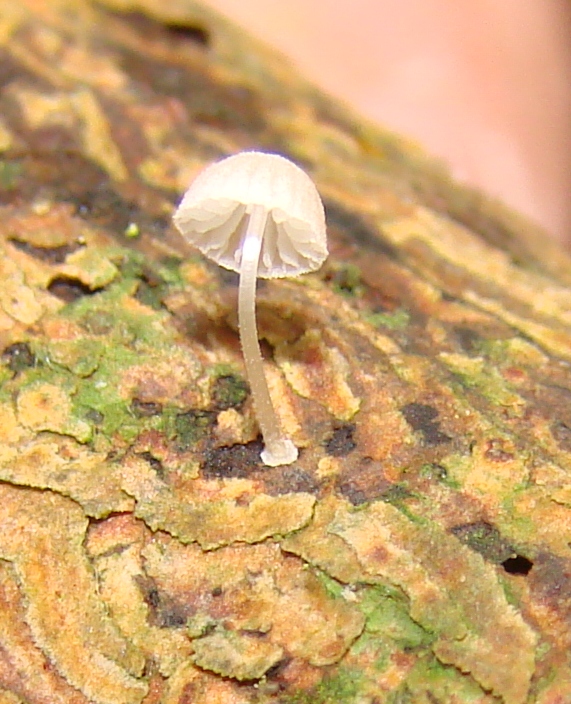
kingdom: Fungi
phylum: Basidiomycota
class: Agaricomycetes
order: Agaricales
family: Mycenaceae
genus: Mycena
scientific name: Mycena tenerrima
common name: pudret huesvamp
